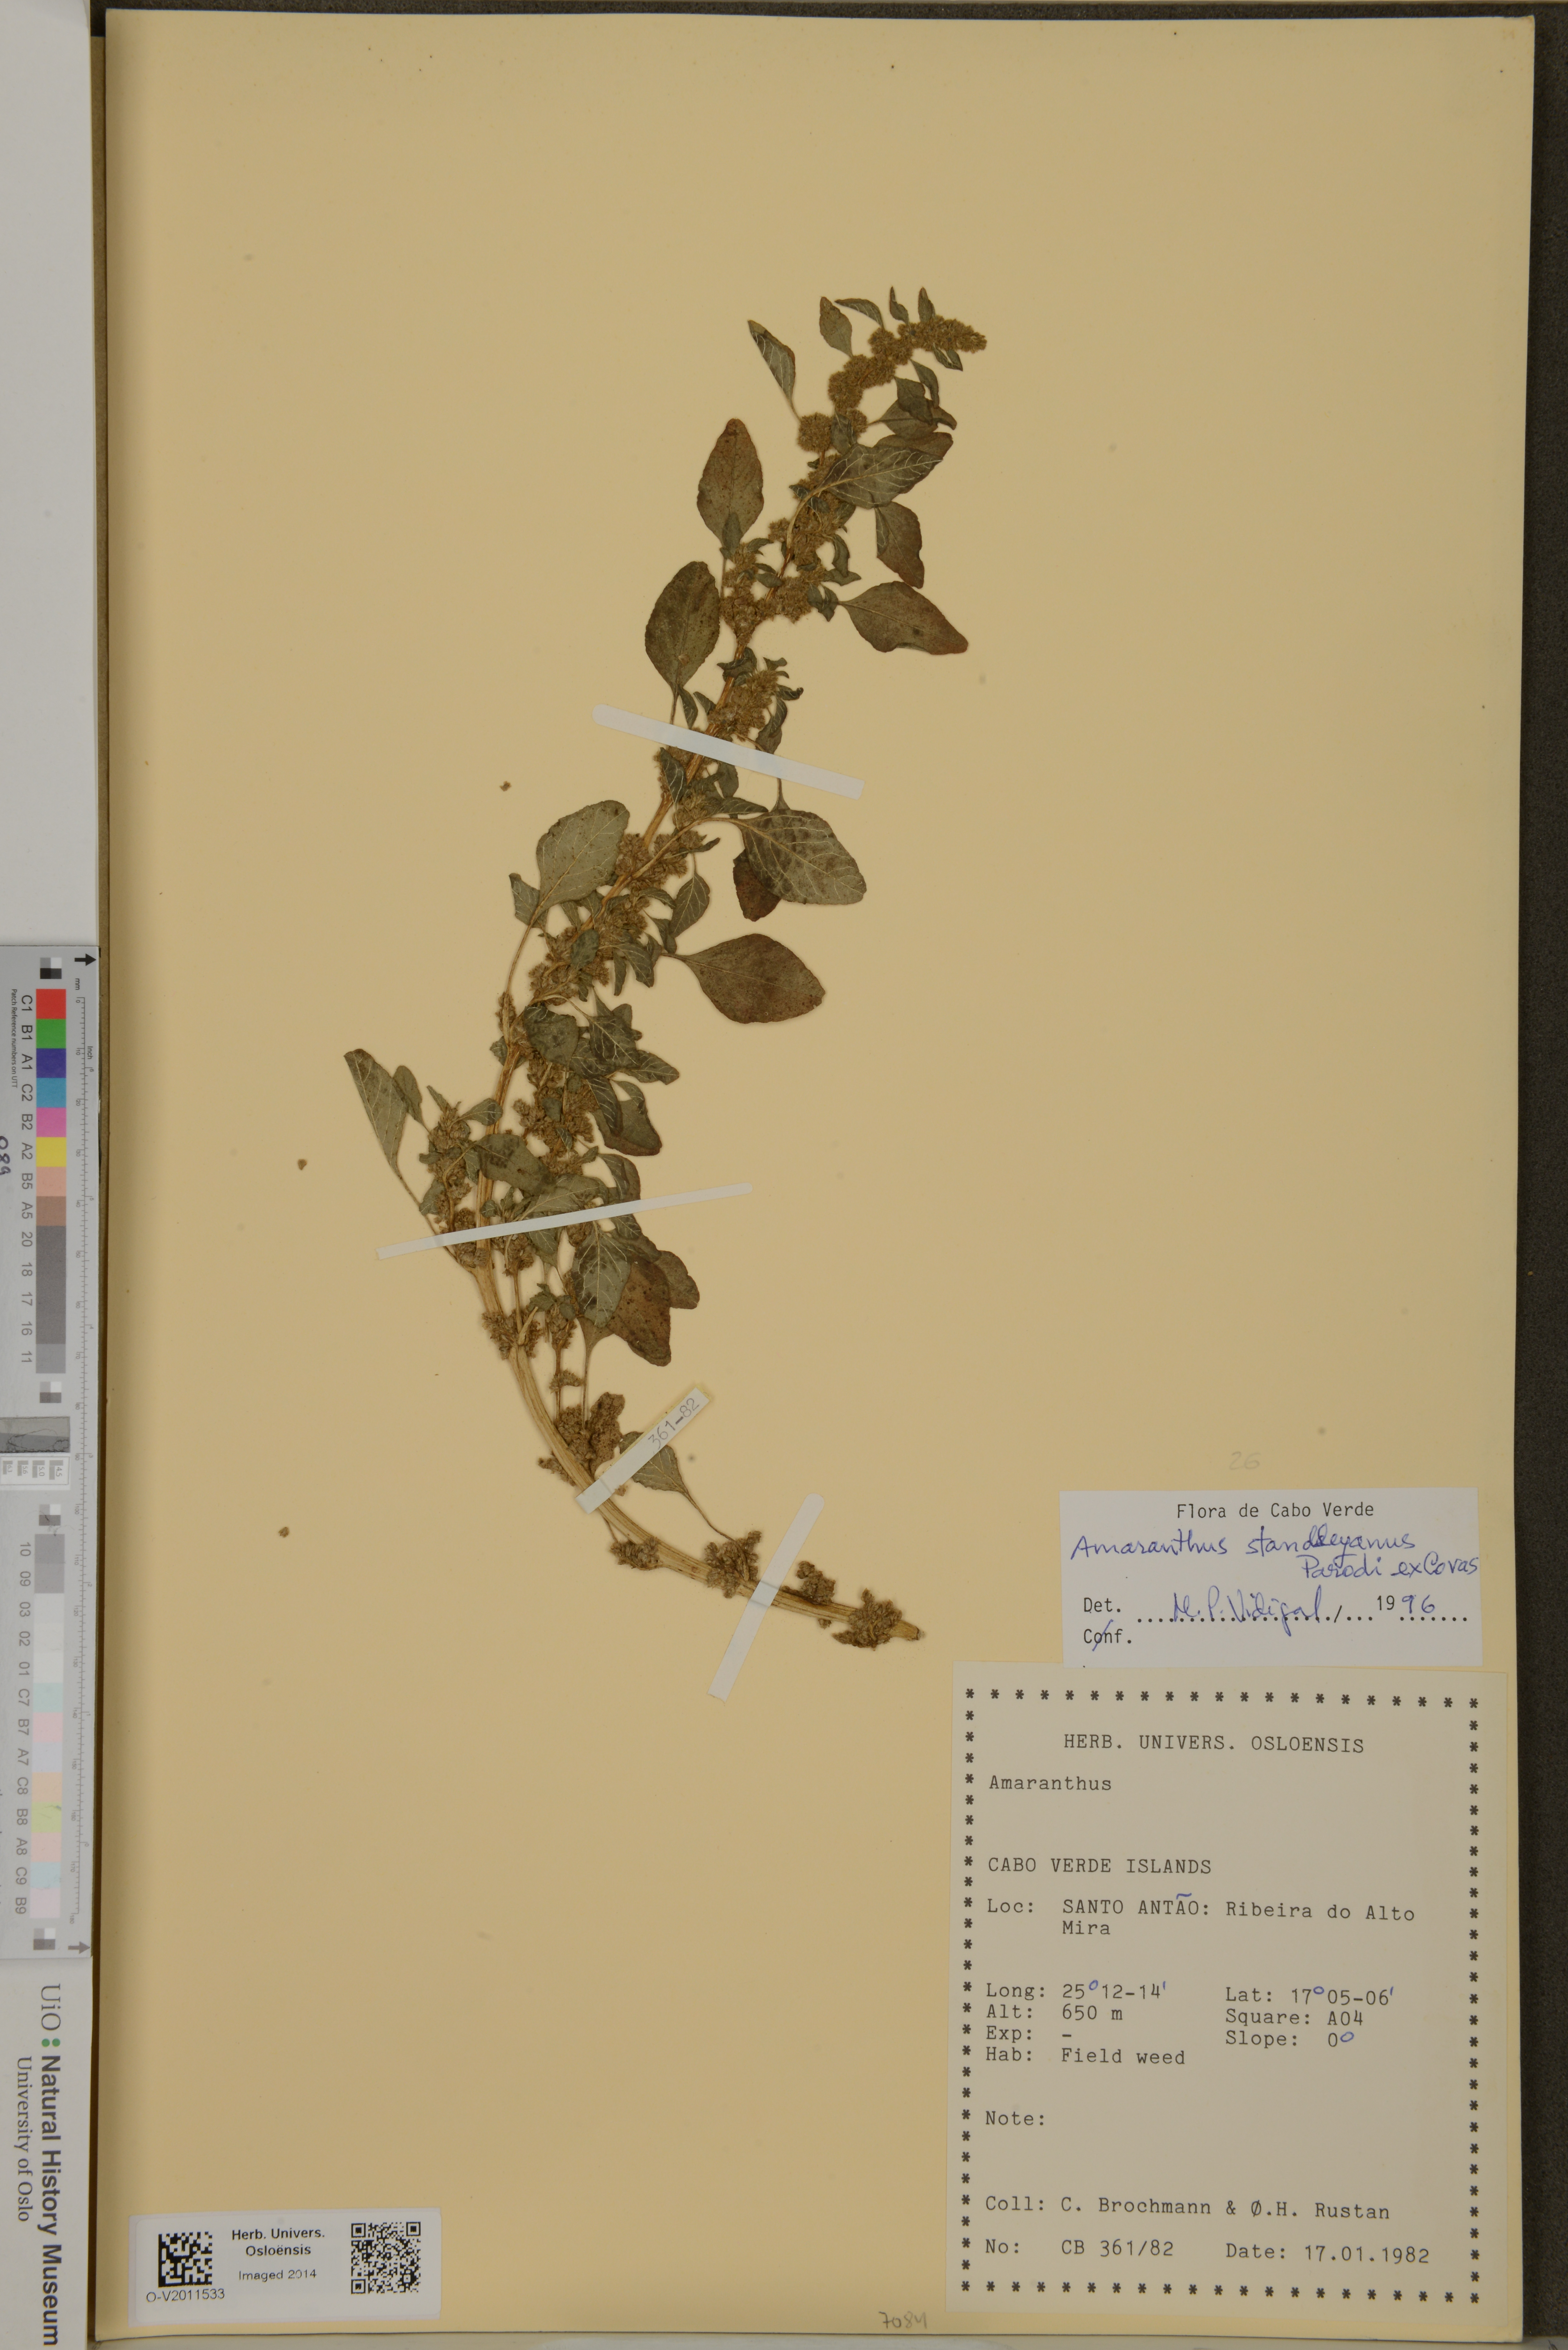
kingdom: Plantae
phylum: Tracheophyta
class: Magnoliopsida
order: Caryophyllales
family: Amaranthaceae
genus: Amaranthus
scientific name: Amaranthus standleyanus
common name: Indehiscent pigweed
